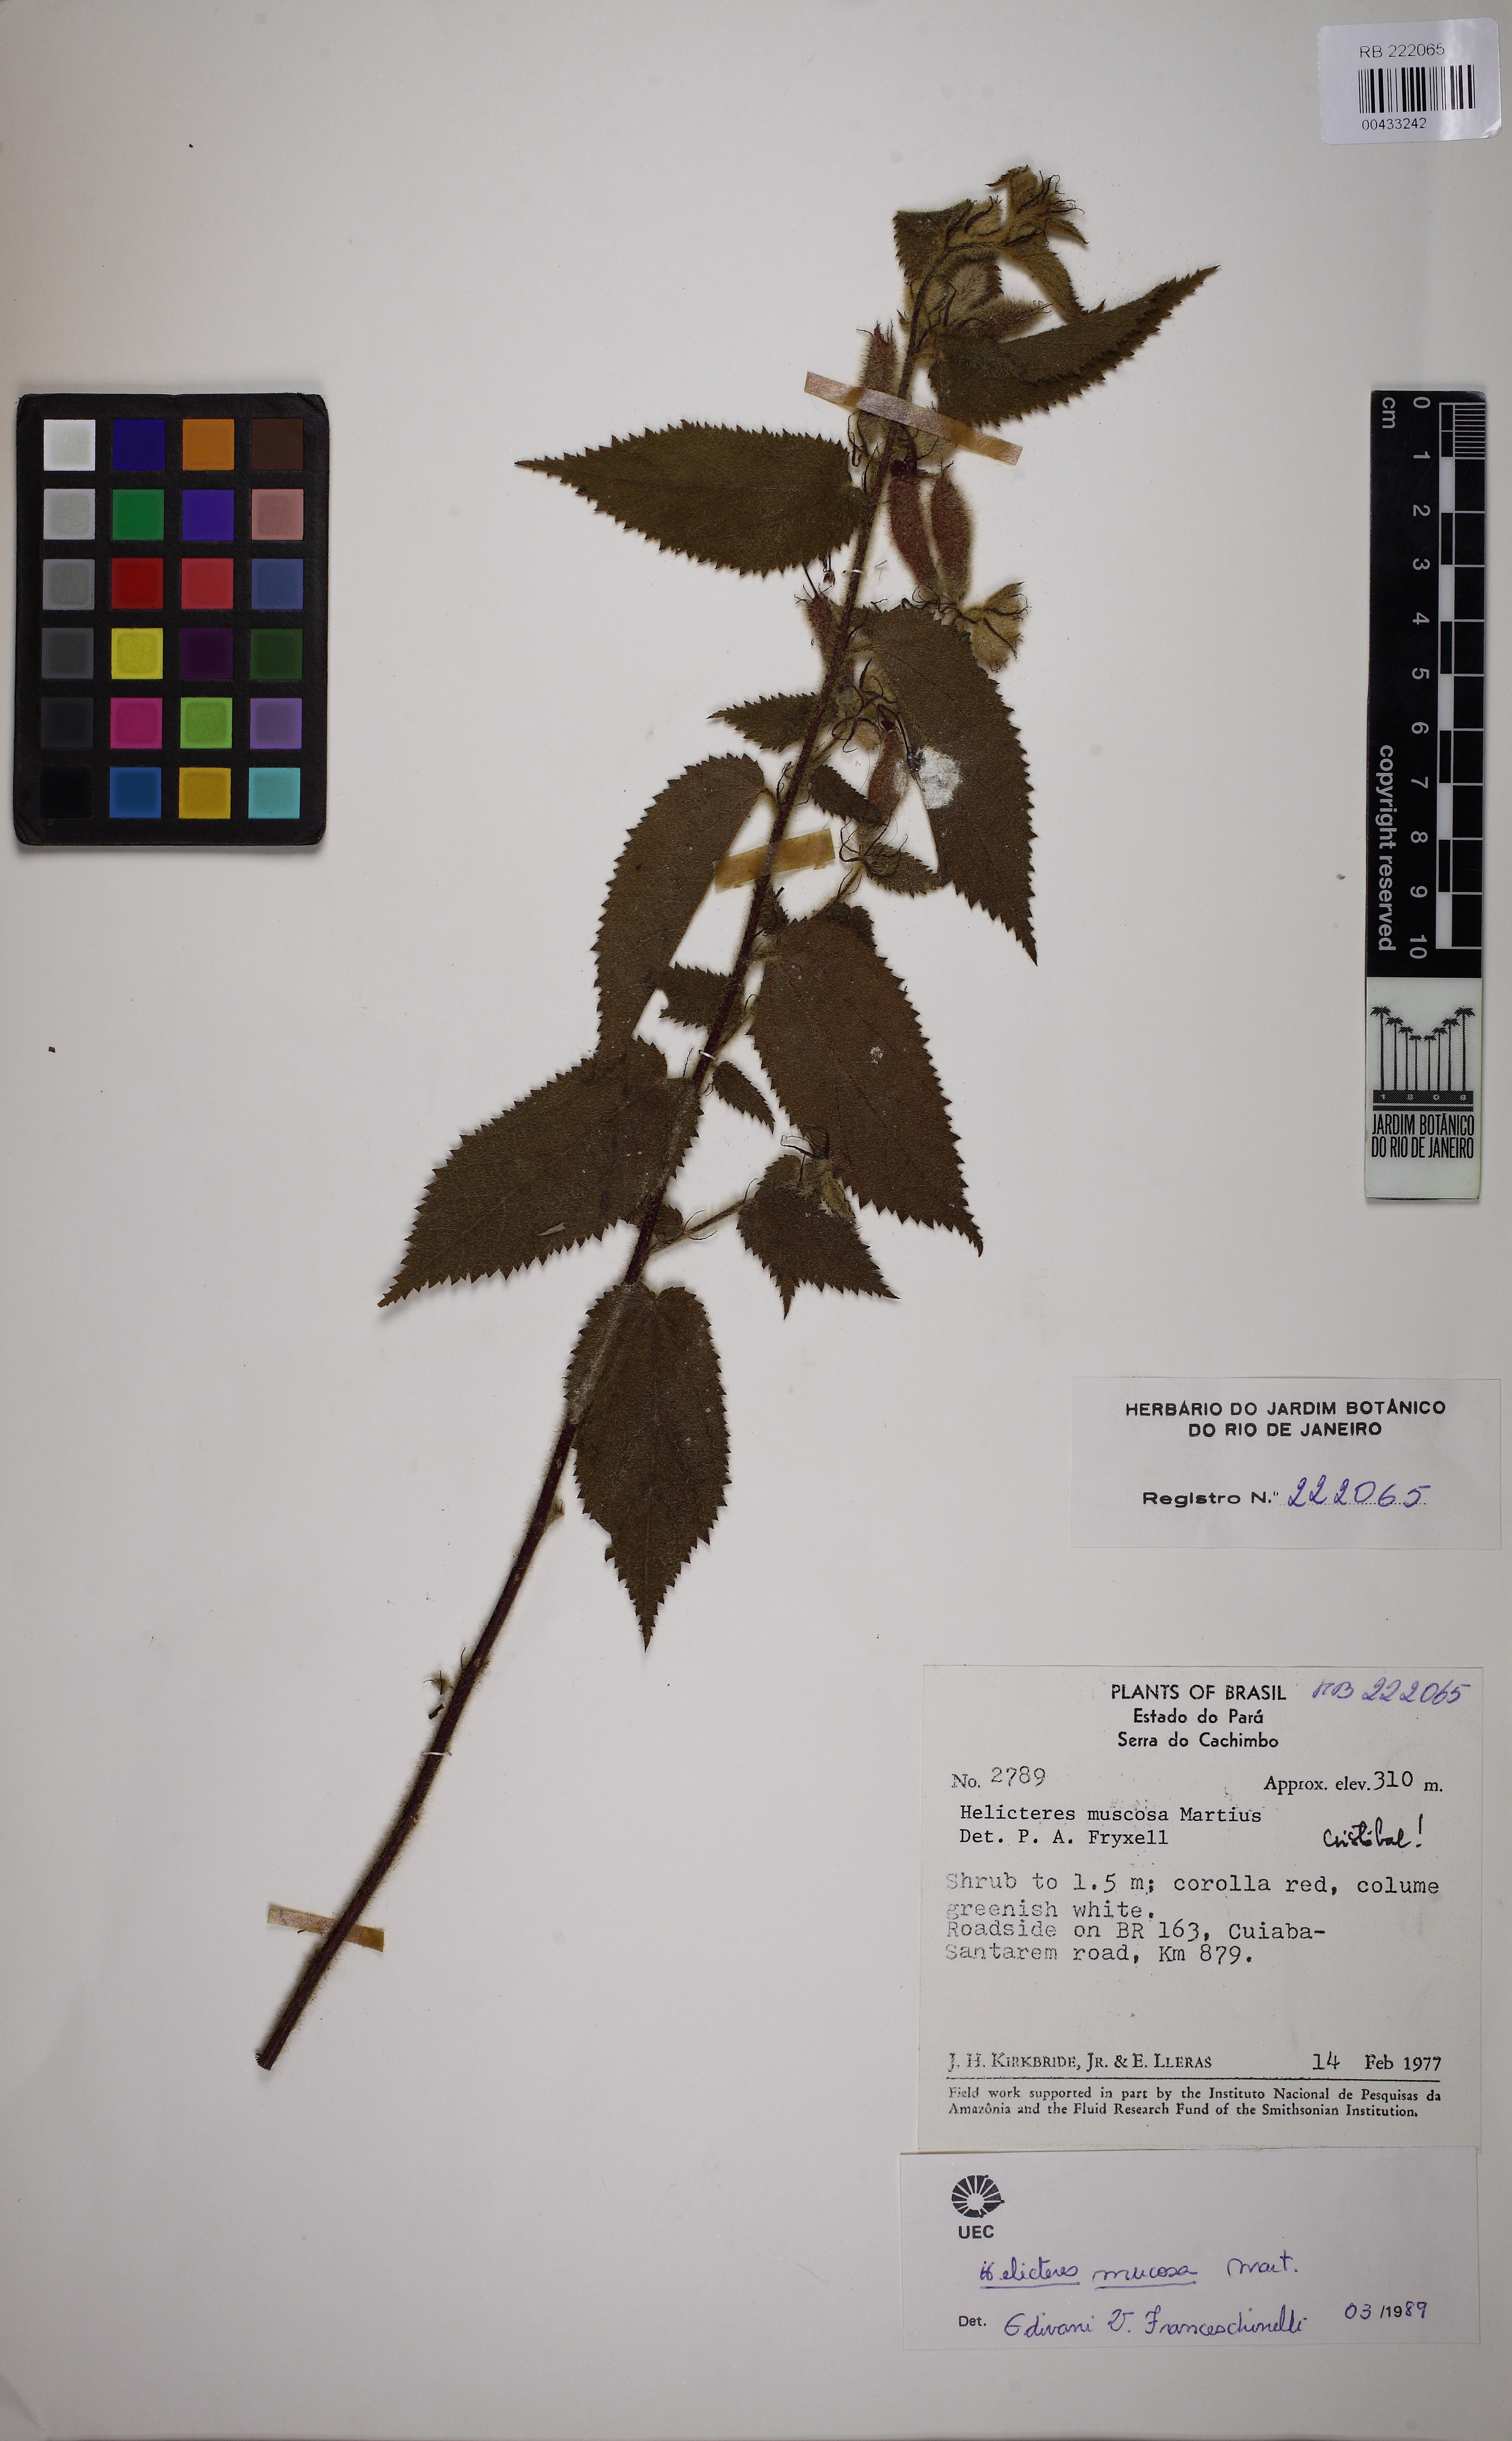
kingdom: Plantae
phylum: Tracheophyta
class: Magnoliopsida
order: Malvales
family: Malvaceae
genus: Helicteres
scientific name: Helicteres muscosa
